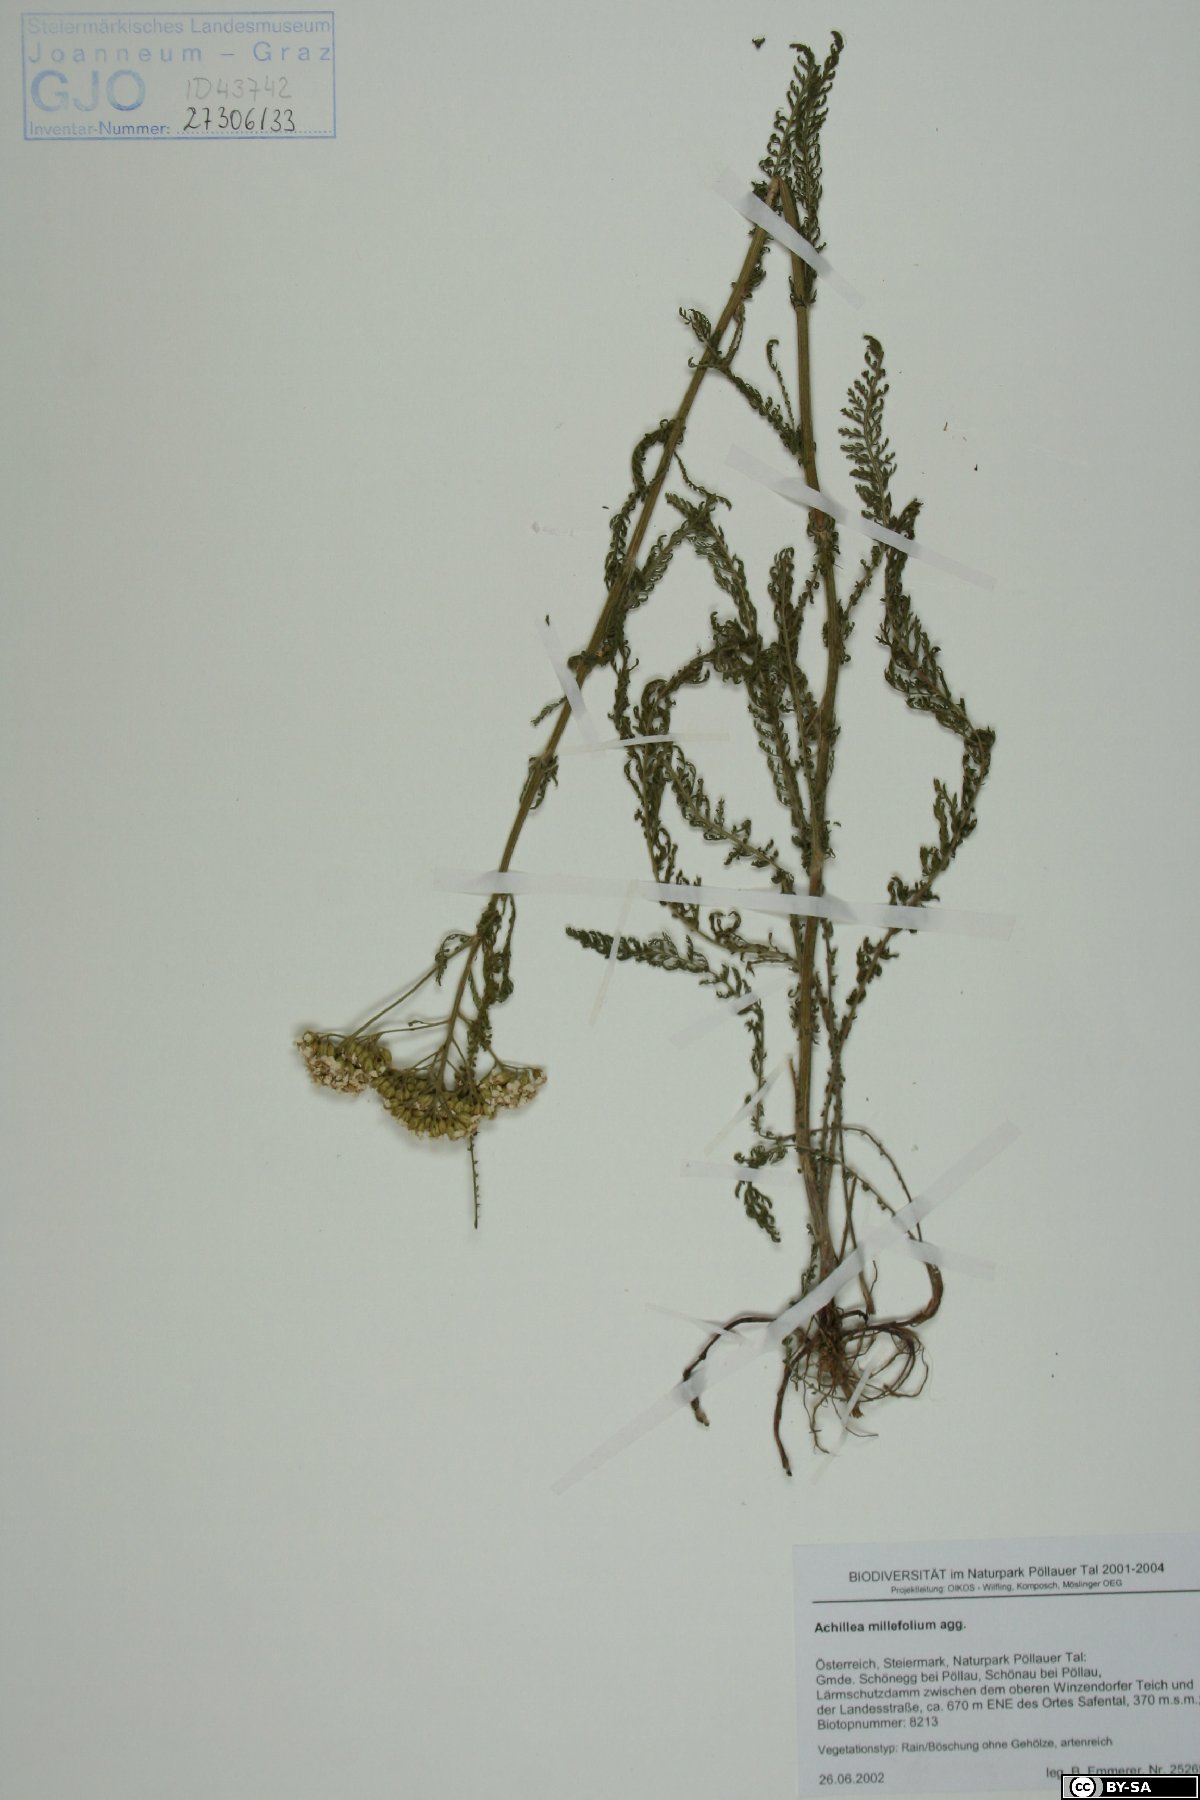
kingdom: Plantae
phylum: Tracheophyta
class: Magnoliopsida
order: Asterales
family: Asteraceae
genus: Achillea
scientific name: Achillea millefolium
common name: Yarrow
